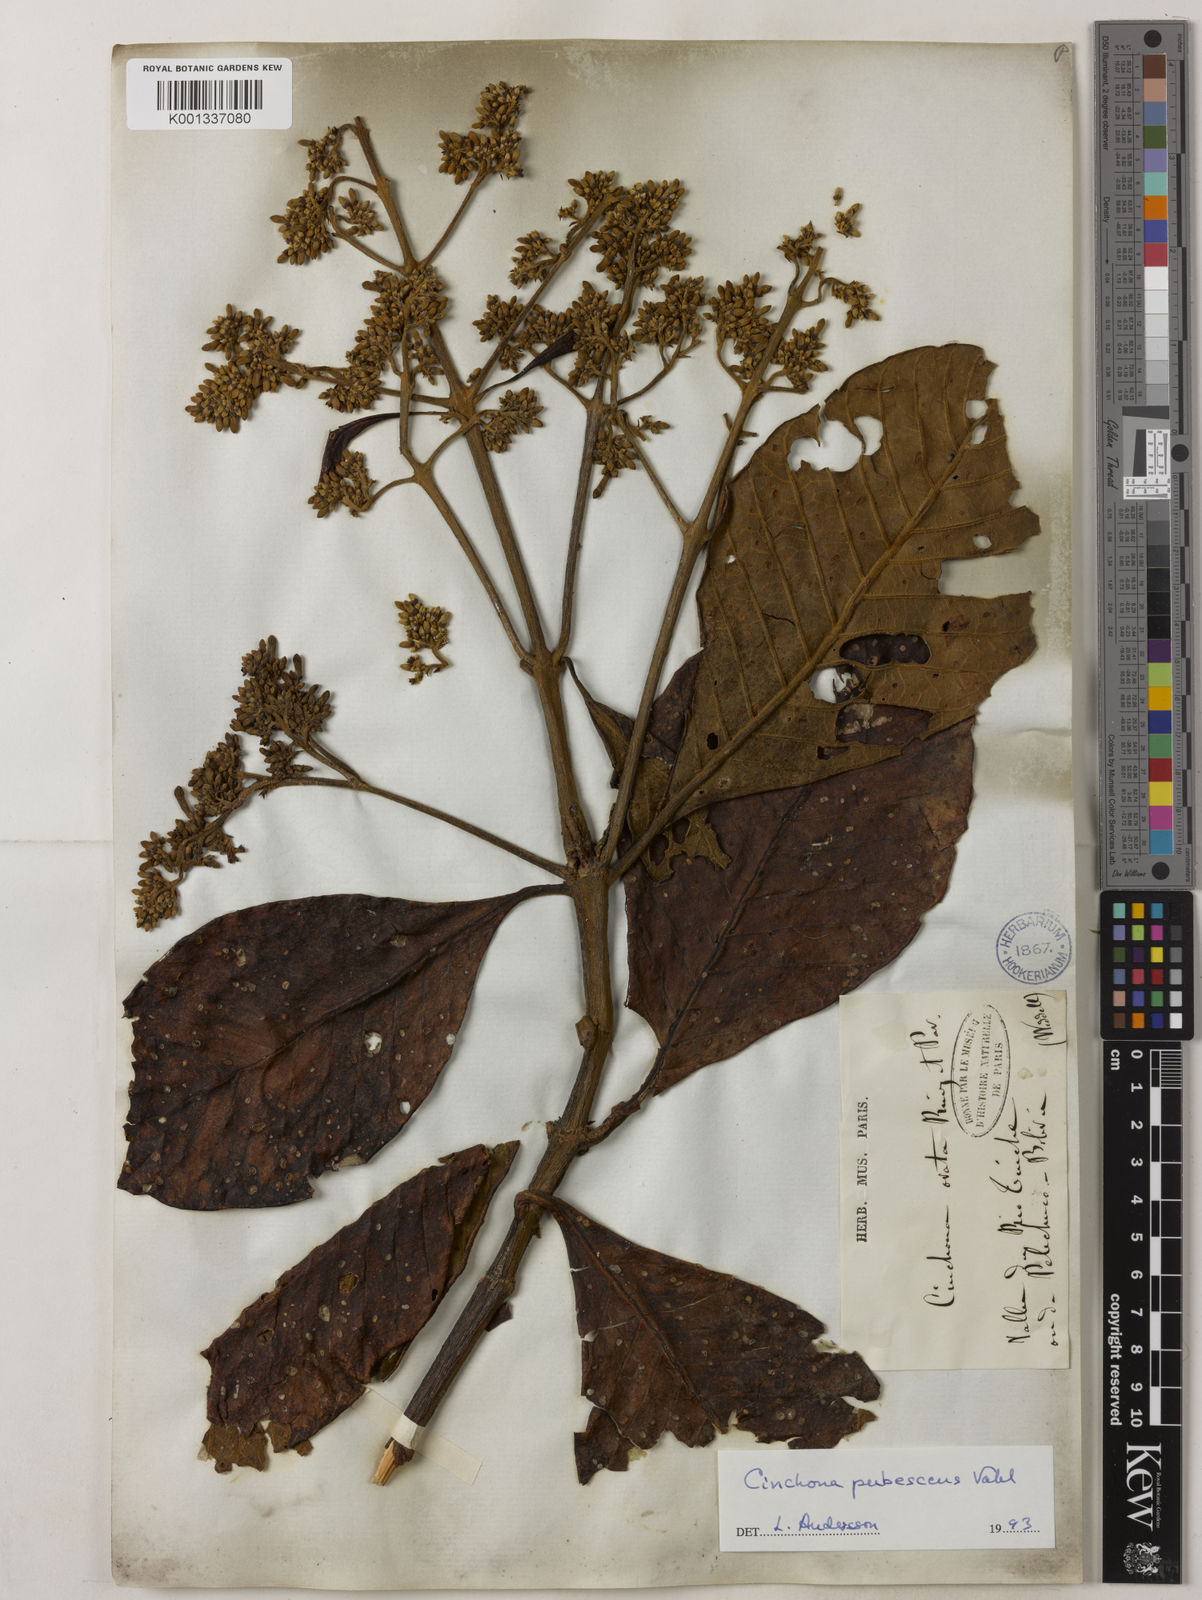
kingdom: Plantae
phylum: Tracheophyta
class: Magnoliopsida
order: Gentianales
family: Rubiaceae
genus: Cinchona
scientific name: Cinchona pubescens
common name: Quinine
